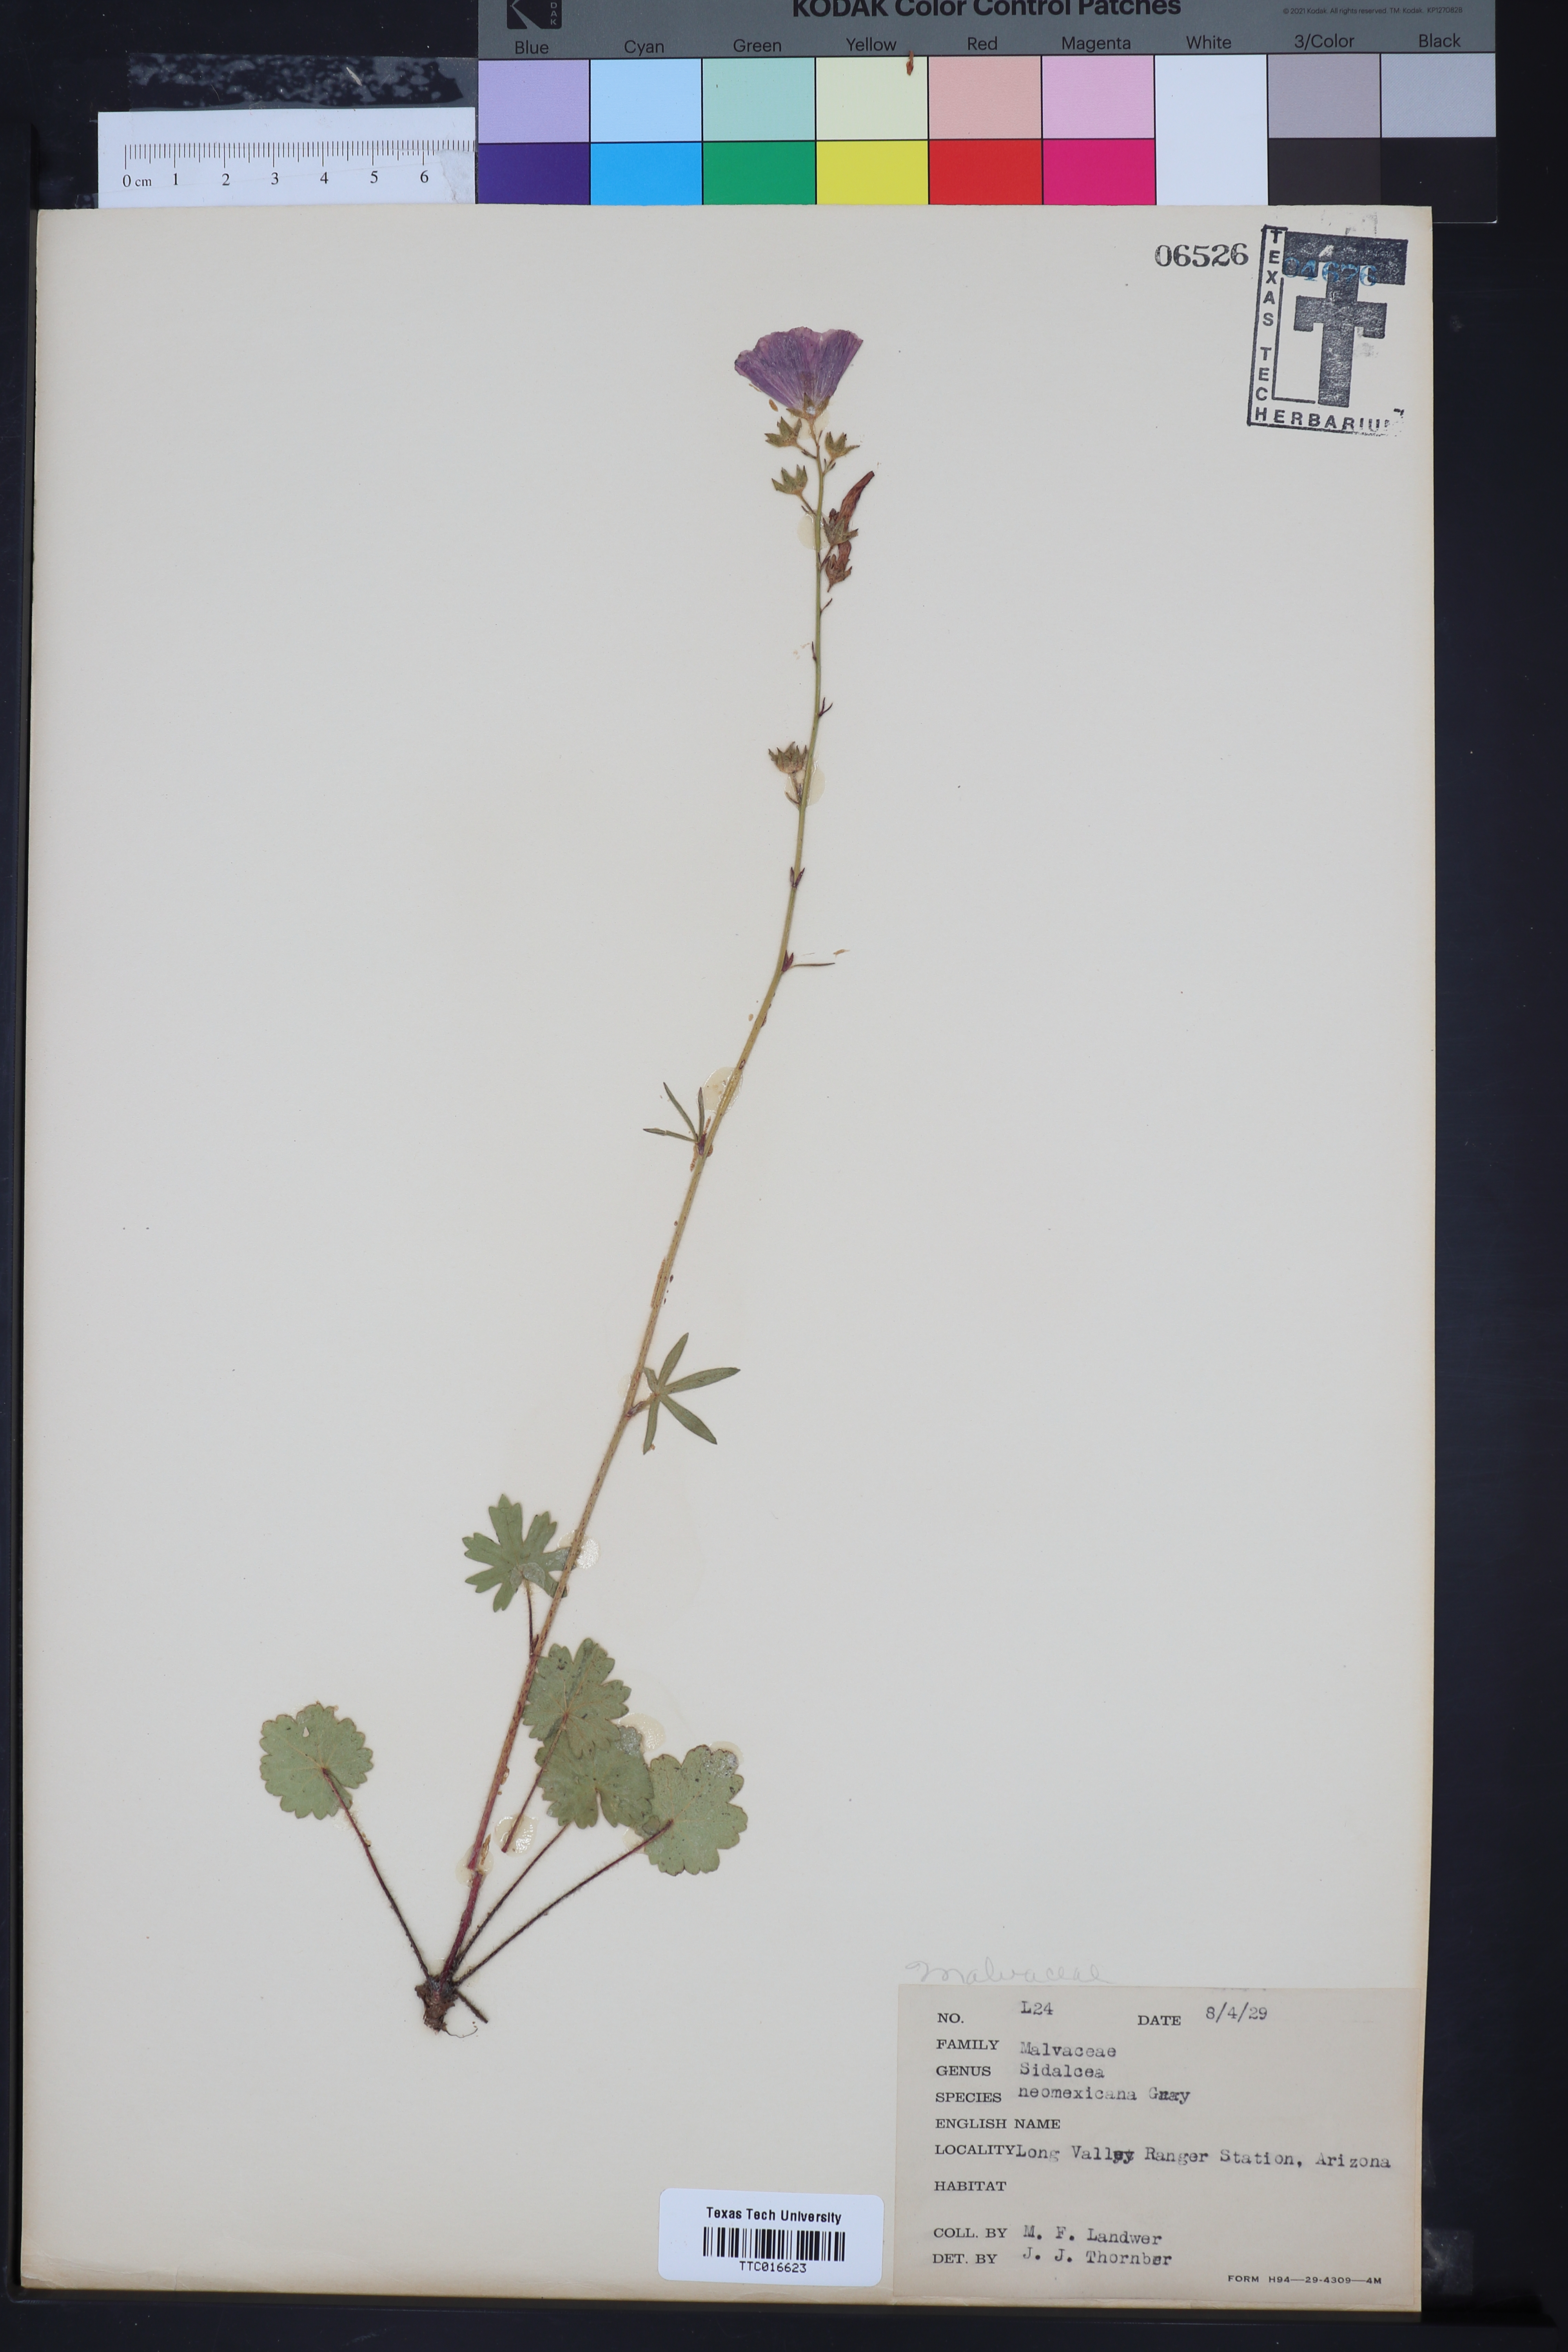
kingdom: Plantae
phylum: Tracheophyta
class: Magnoliopsida
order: Malvales
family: Malvaceae
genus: Sidalcea
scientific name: Sidalcea neomexicana
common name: New mexico checker
